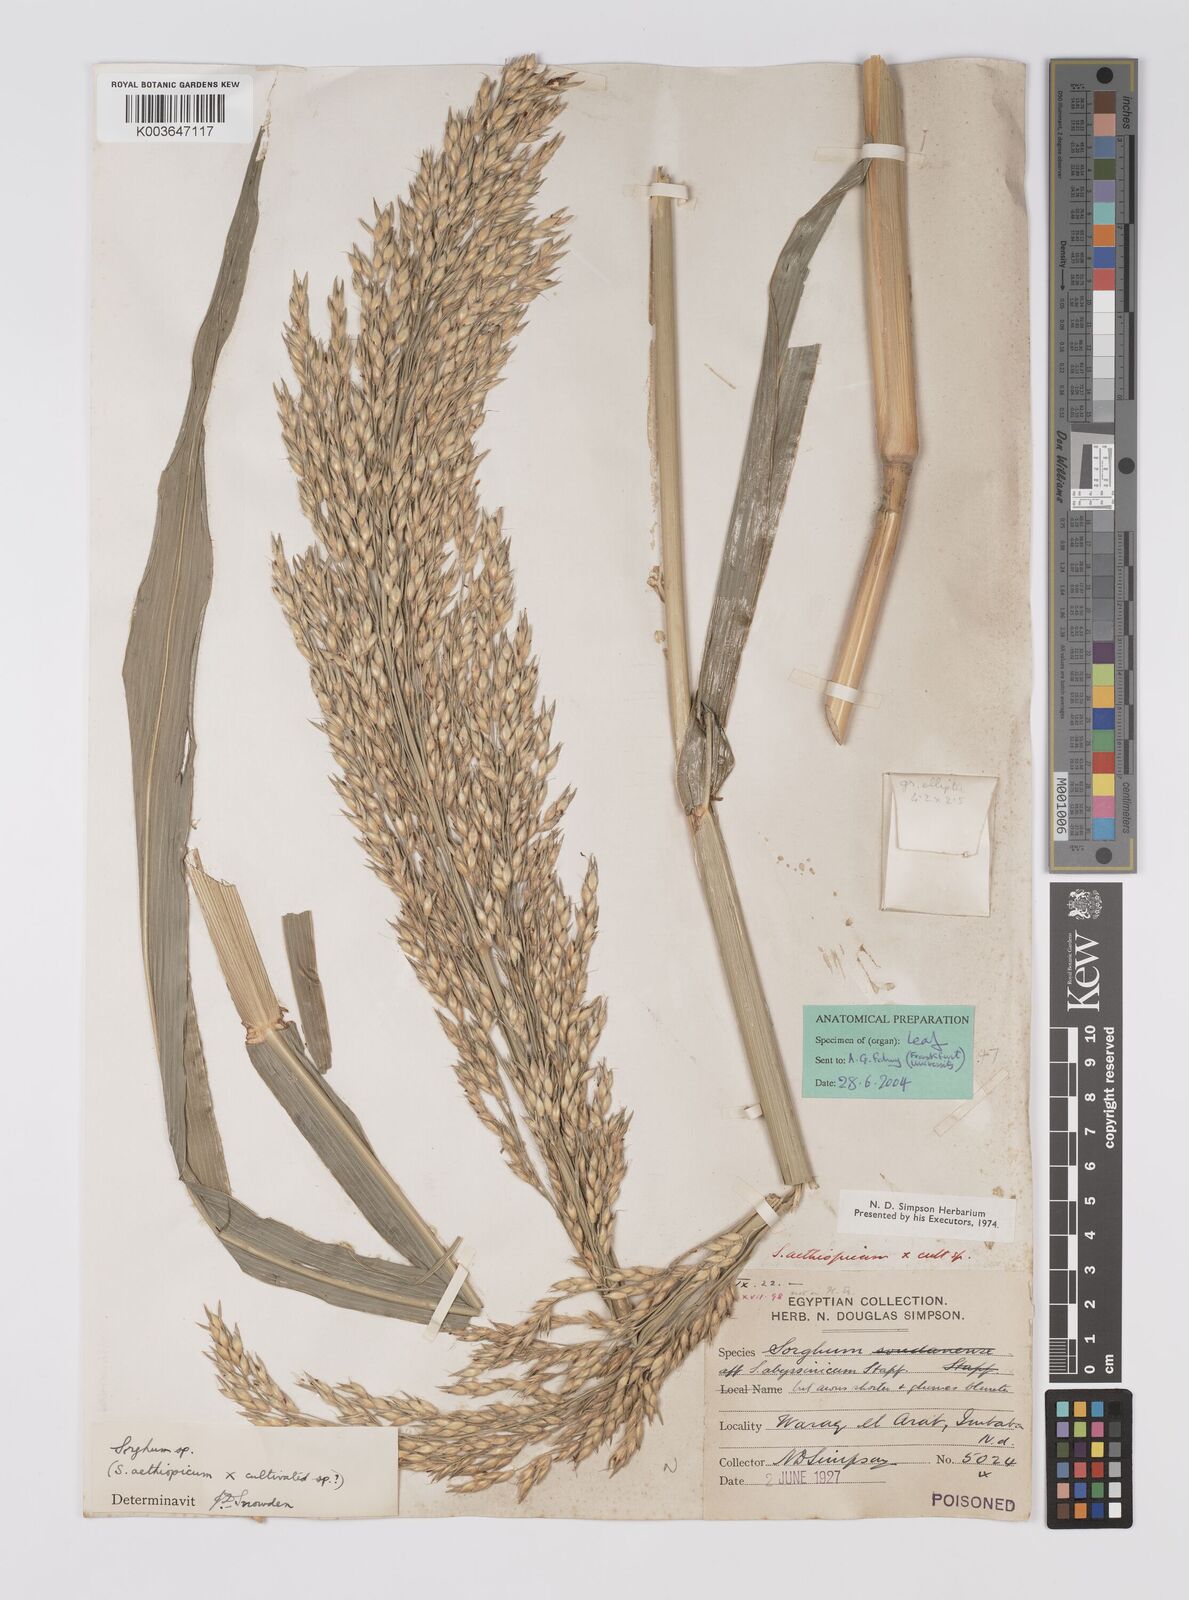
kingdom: Plantae
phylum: Tracheophyta
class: Liliopsida
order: Poales
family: Poaceae
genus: Sorghum
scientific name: Sorghum drummondii
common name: Sudangrass
